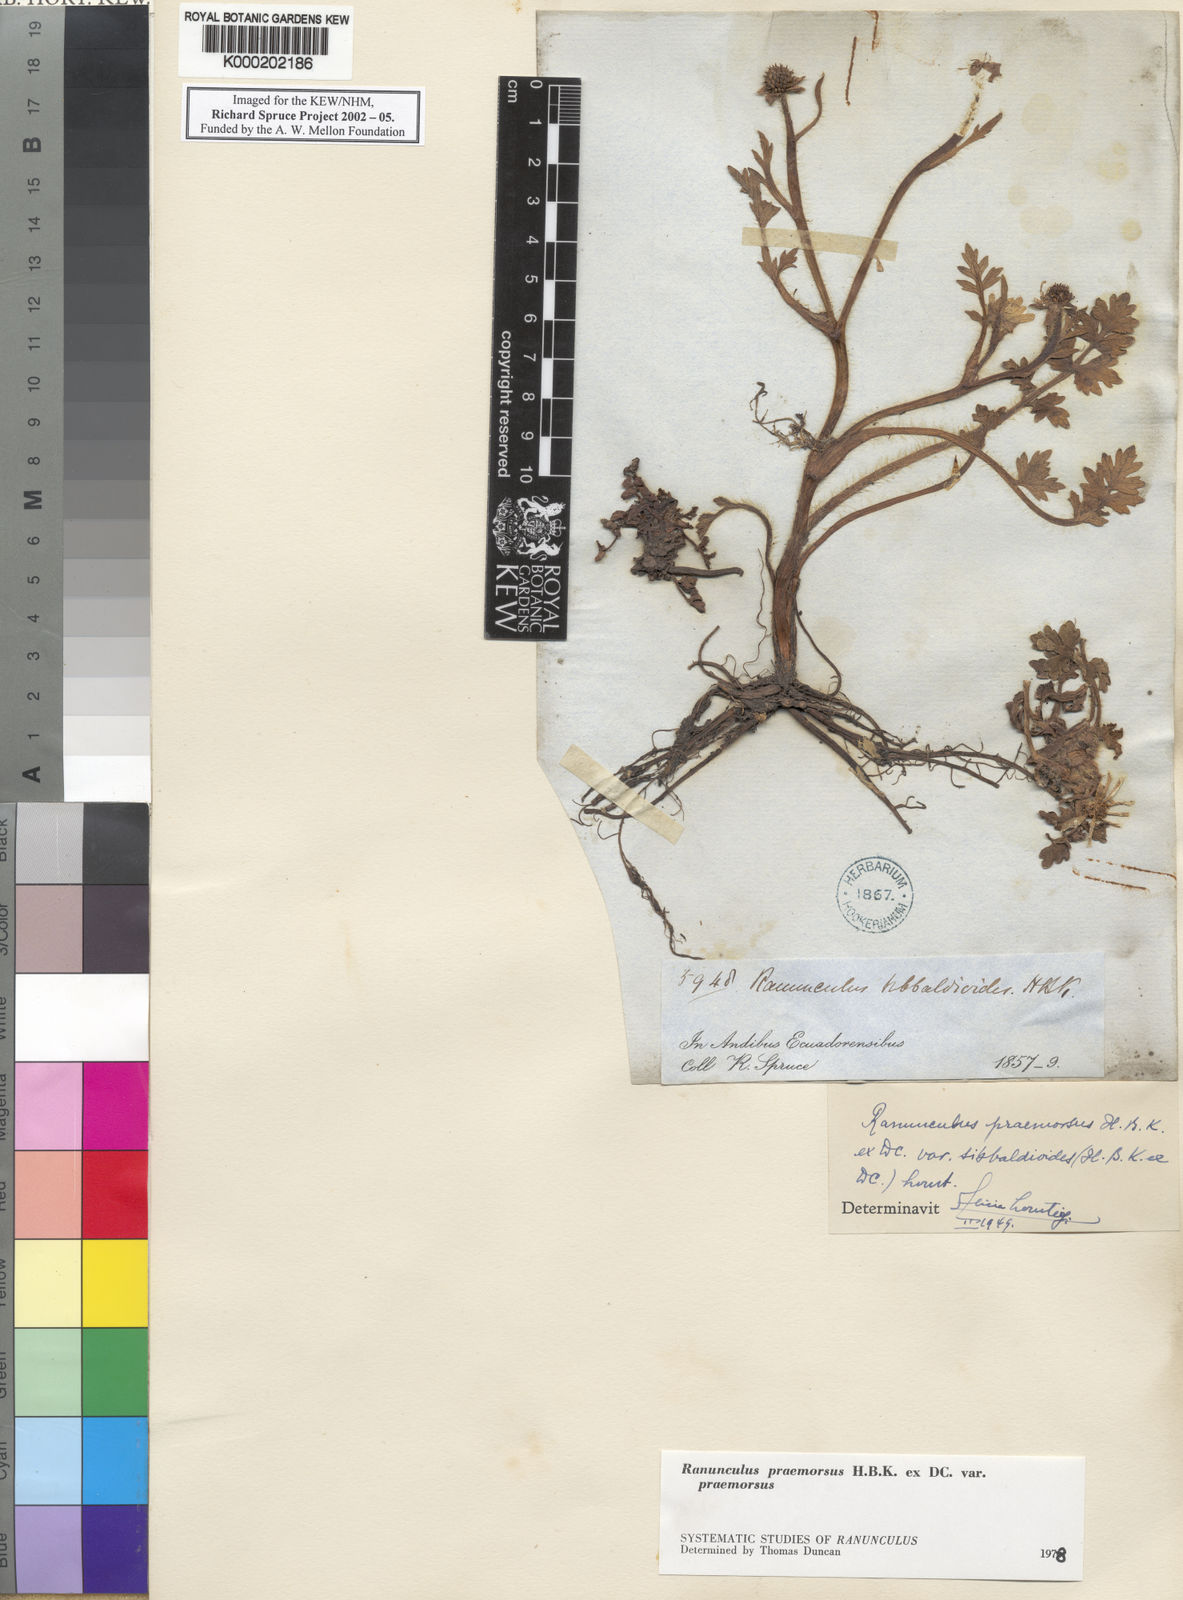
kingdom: Plantae
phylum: Tracheophyta
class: Magnoliopsida
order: Ranunculales
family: Ranunculaceae
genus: Ranunculus
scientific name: Ranunculus praemorsus
